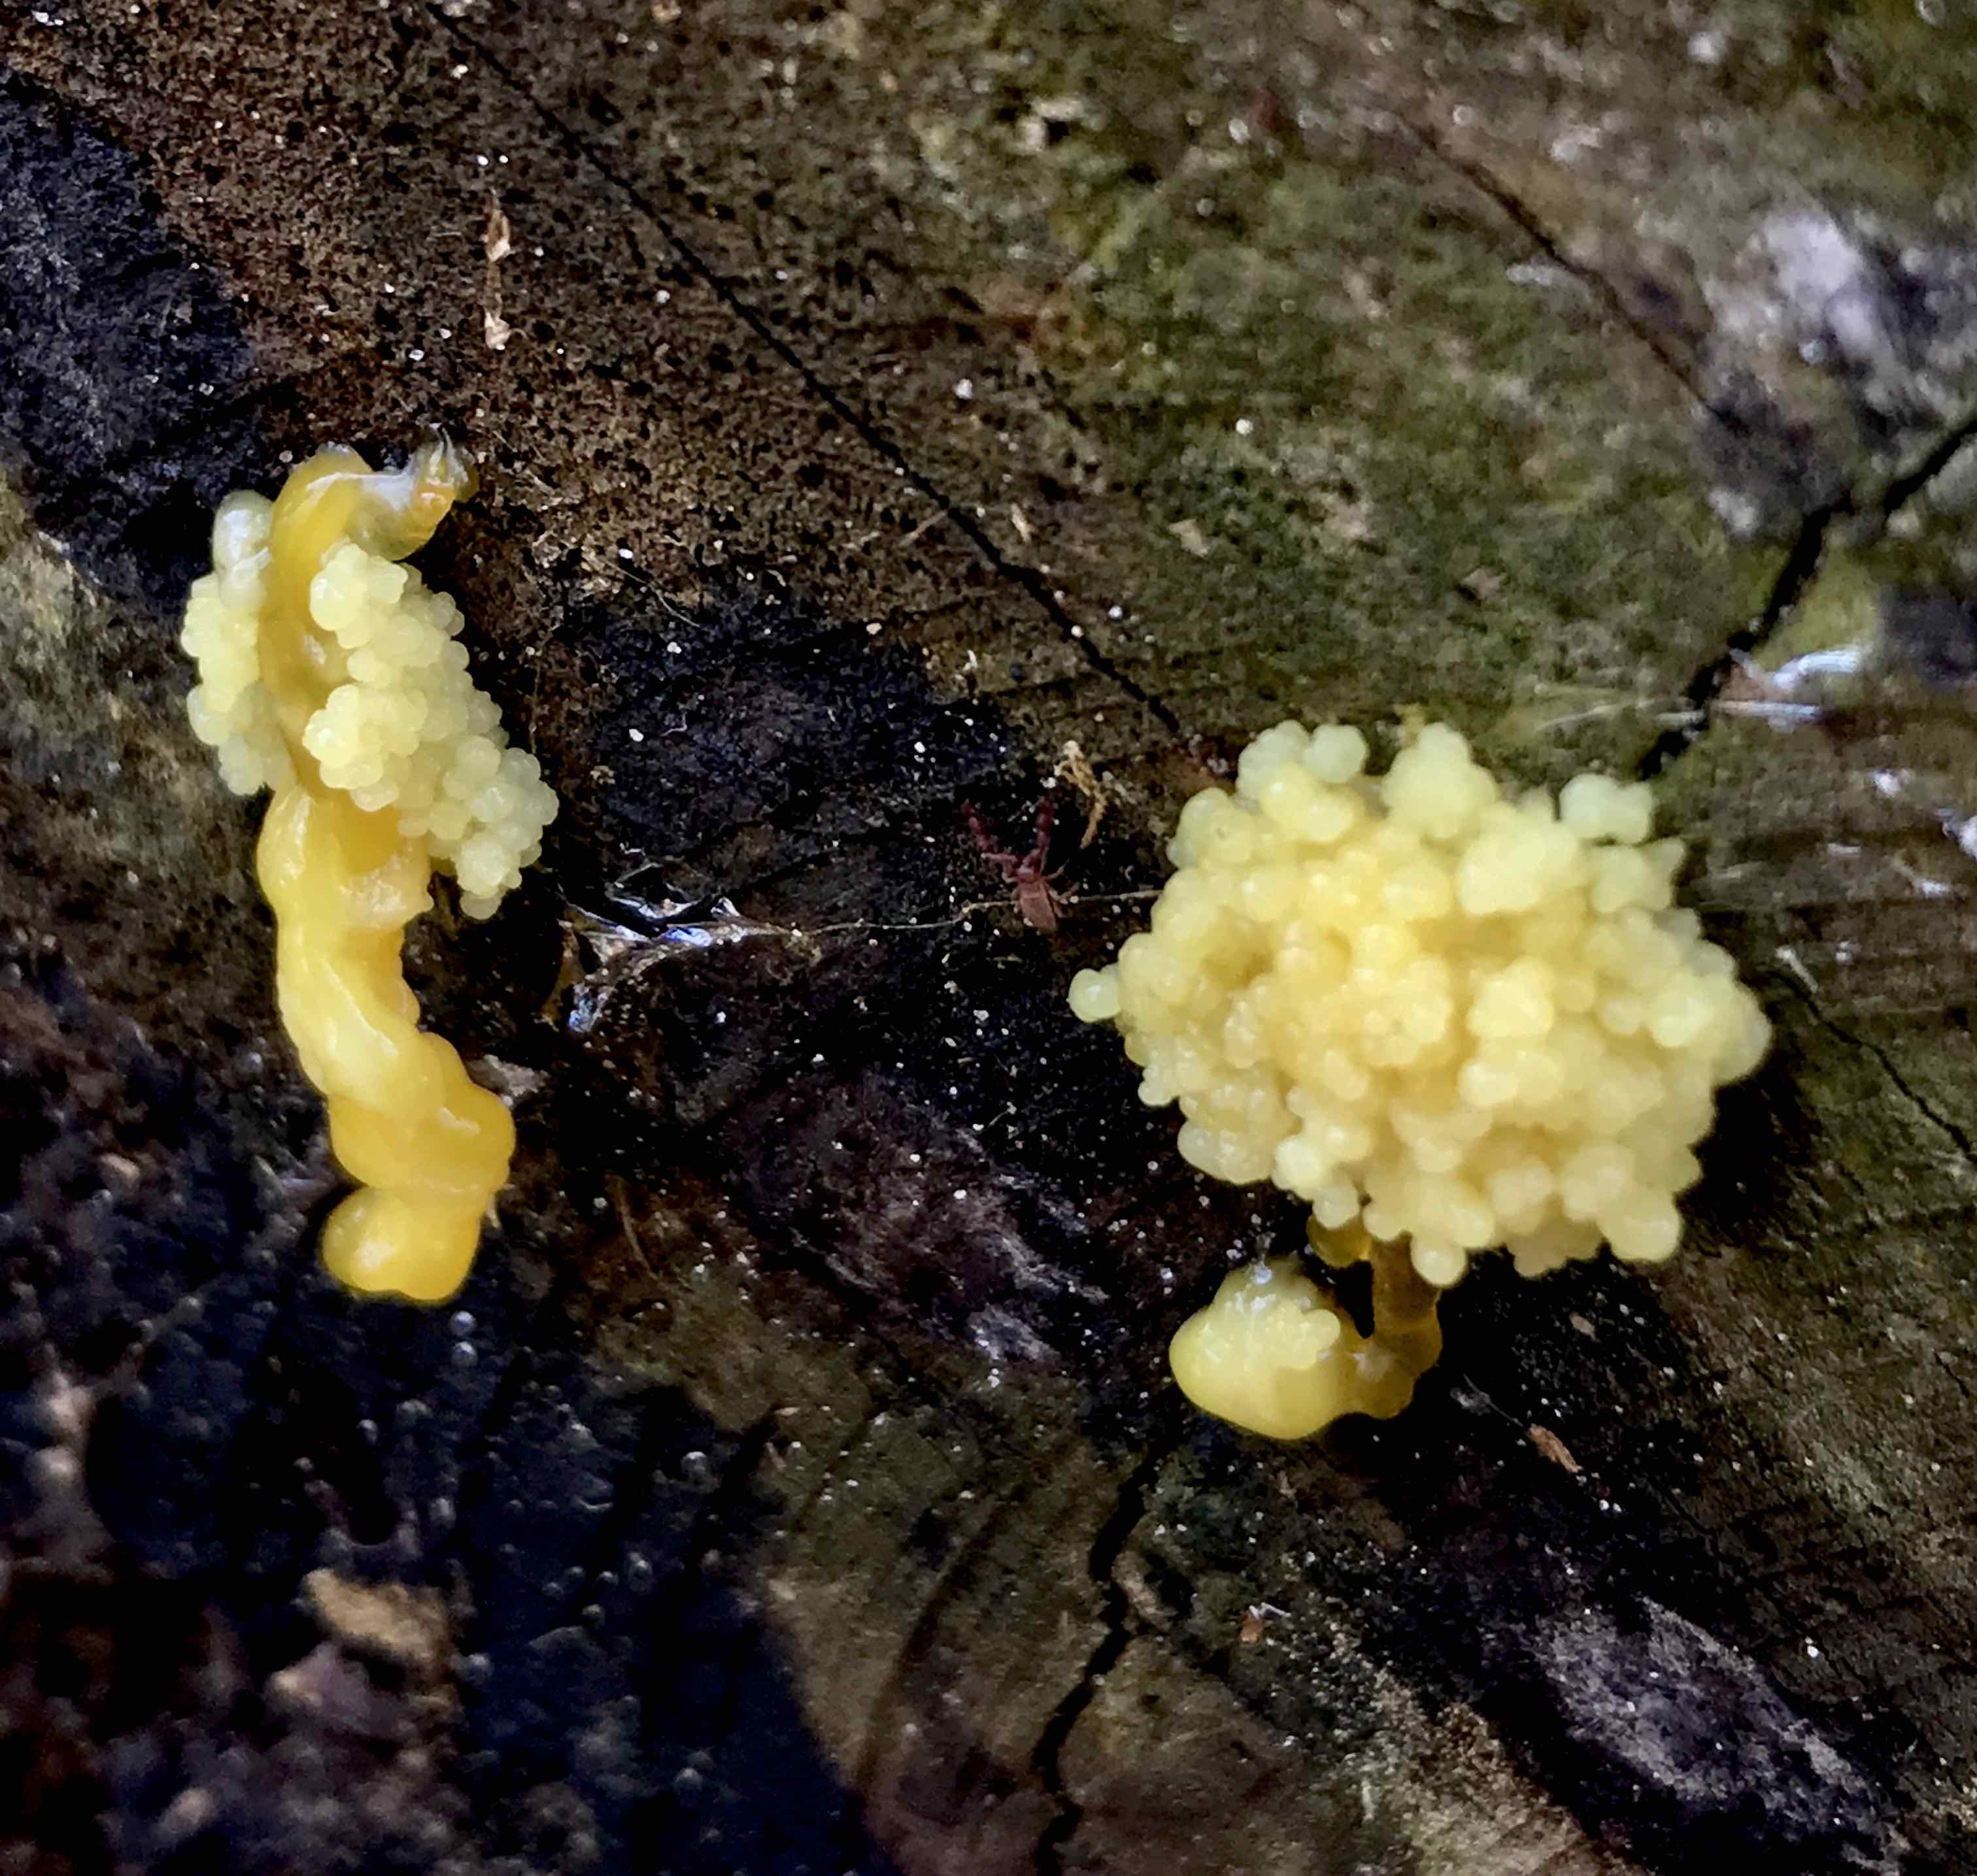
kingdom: Protozoa
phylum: Mycetozoa
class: Myxomycetes
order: Physarales
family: Physaraceae
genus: Fuligo
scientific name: Fuligo septica
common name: gul troldsmør
